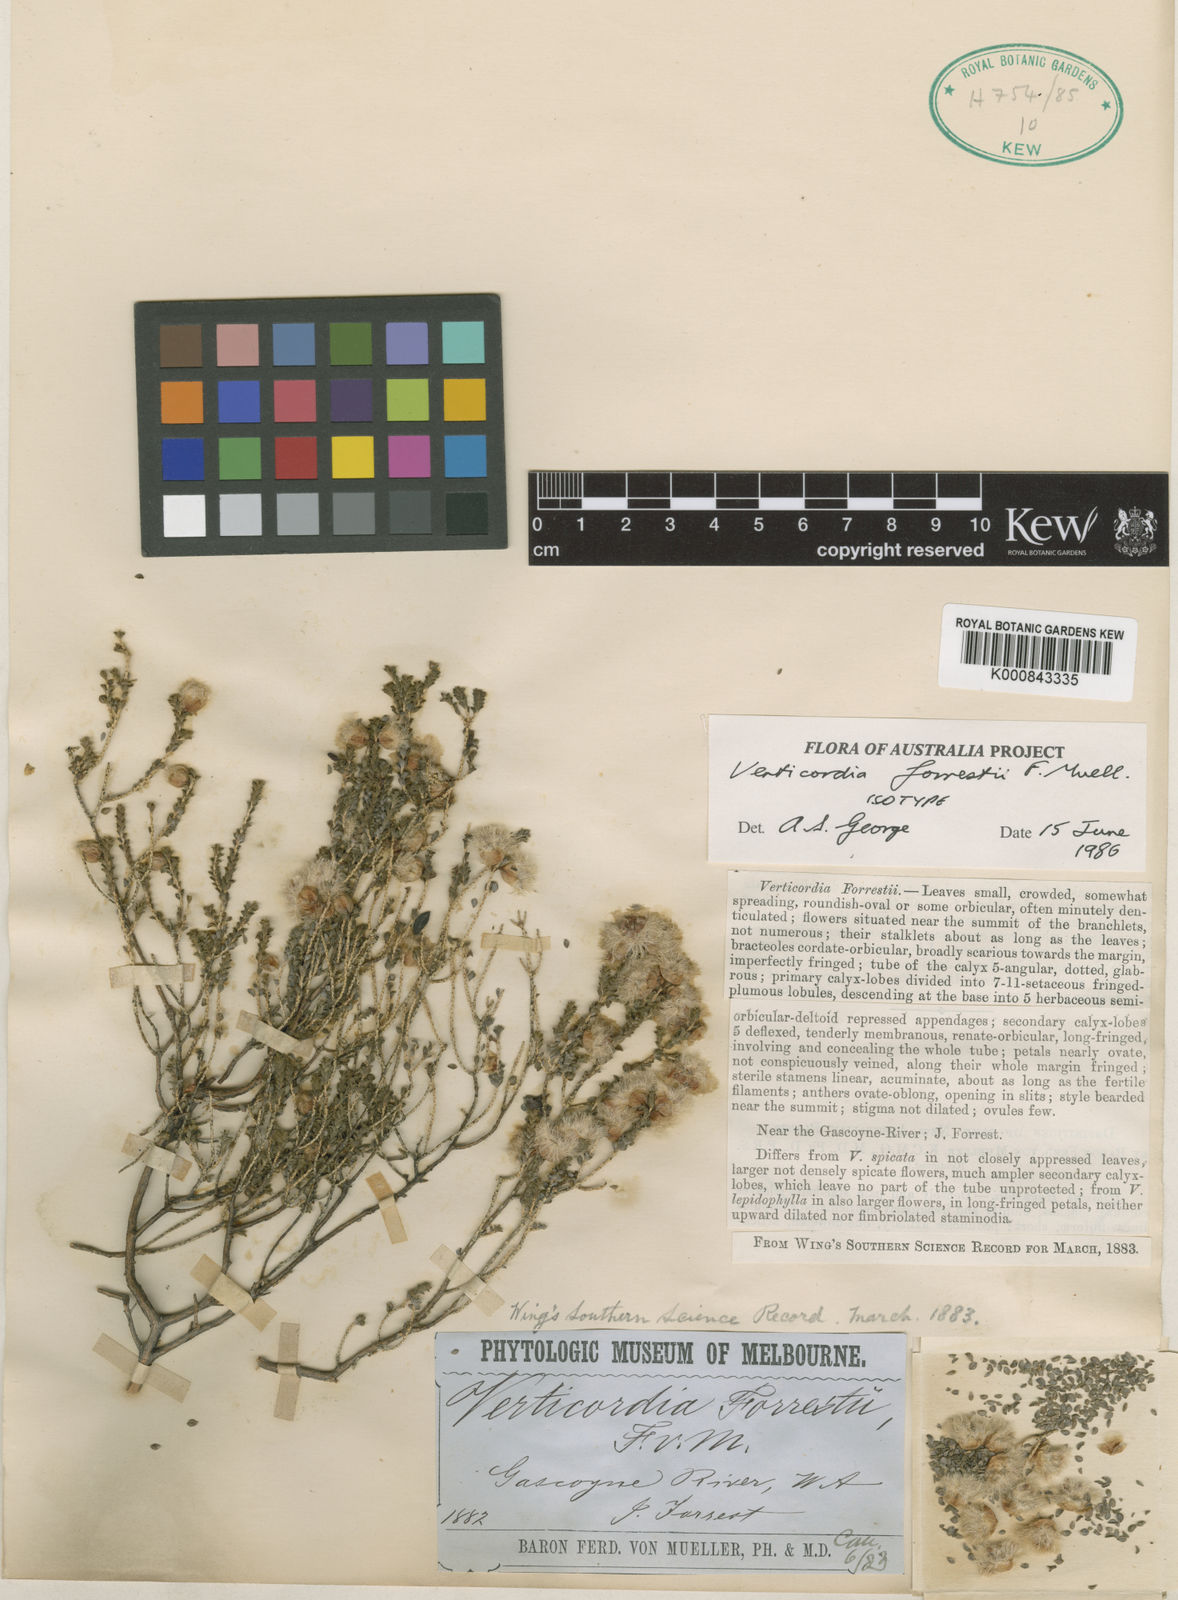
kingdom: Plantae
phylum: Tracheophyta
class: Magnoliopsida
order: Myrtales
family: Myrtaceae
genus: Verticordia
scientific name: Verticordia forrestii
